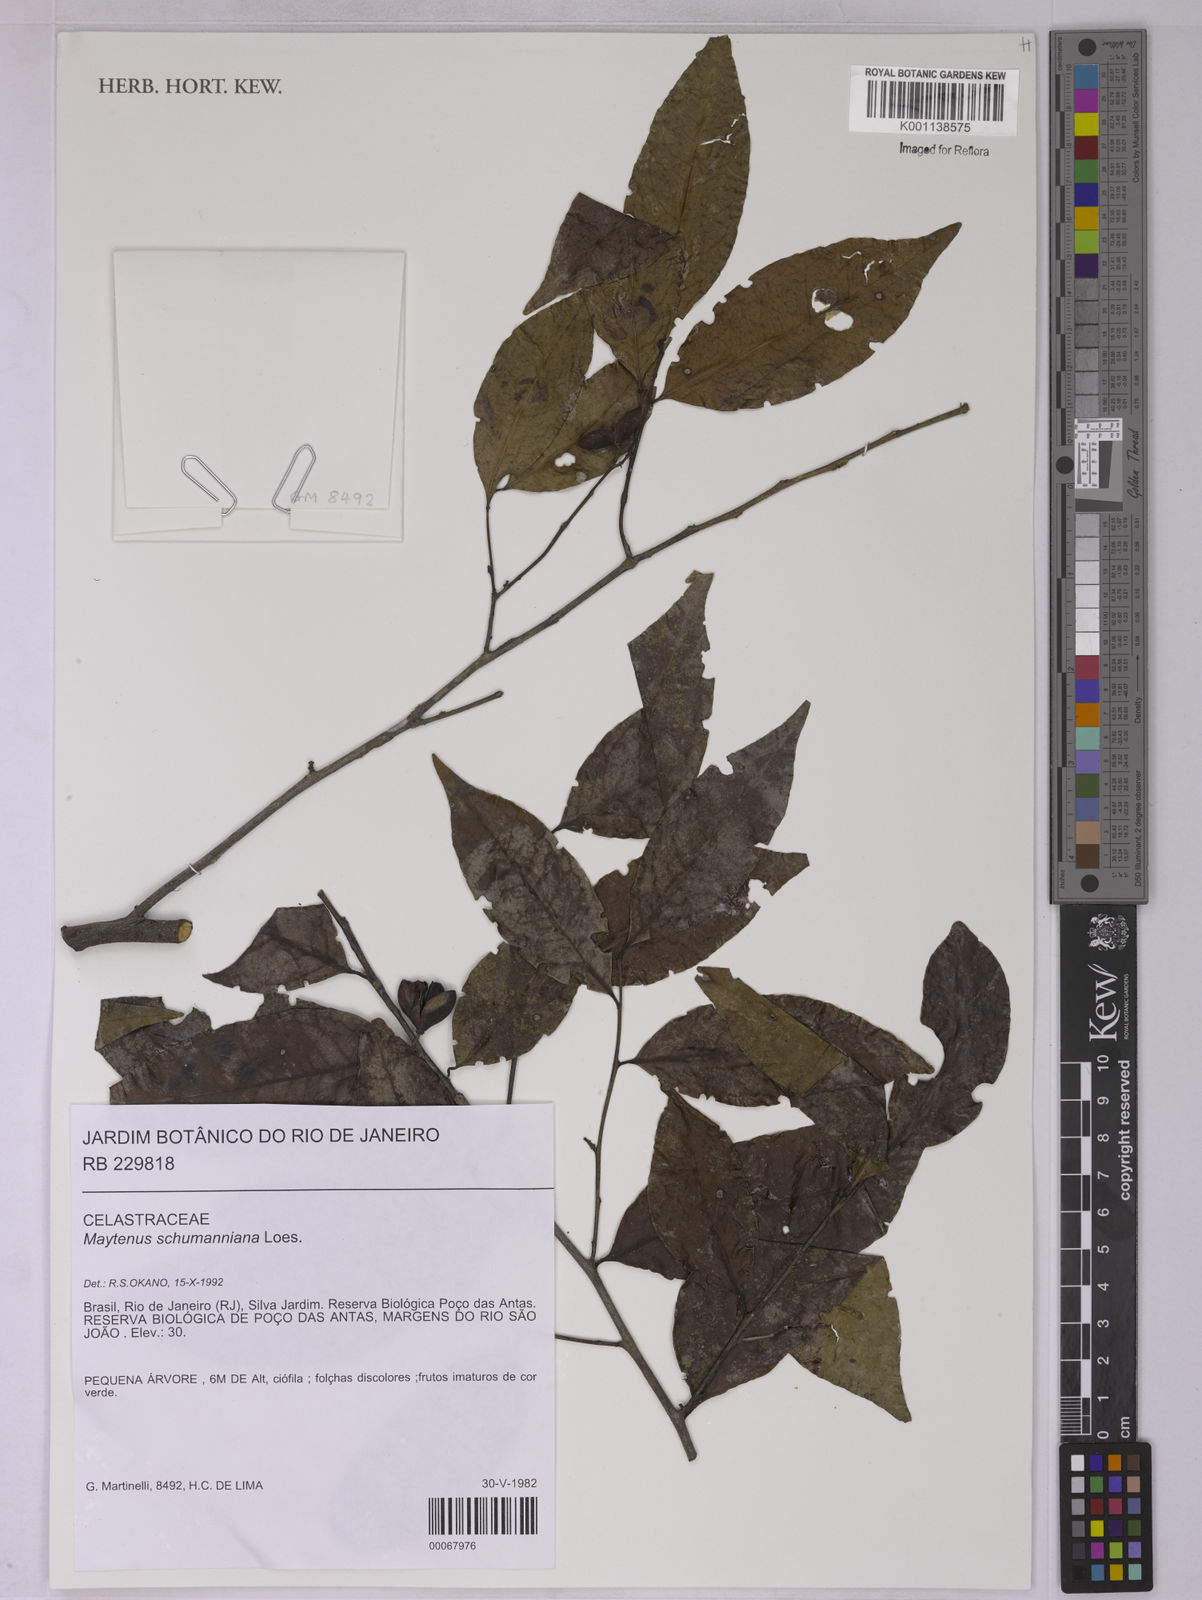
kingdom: Plantae
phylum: Tracheophyta
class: Magnoliopsida
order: Celastrales
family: Celastraceae
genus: Monteverdia
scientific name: Monteverdia schumanniana
